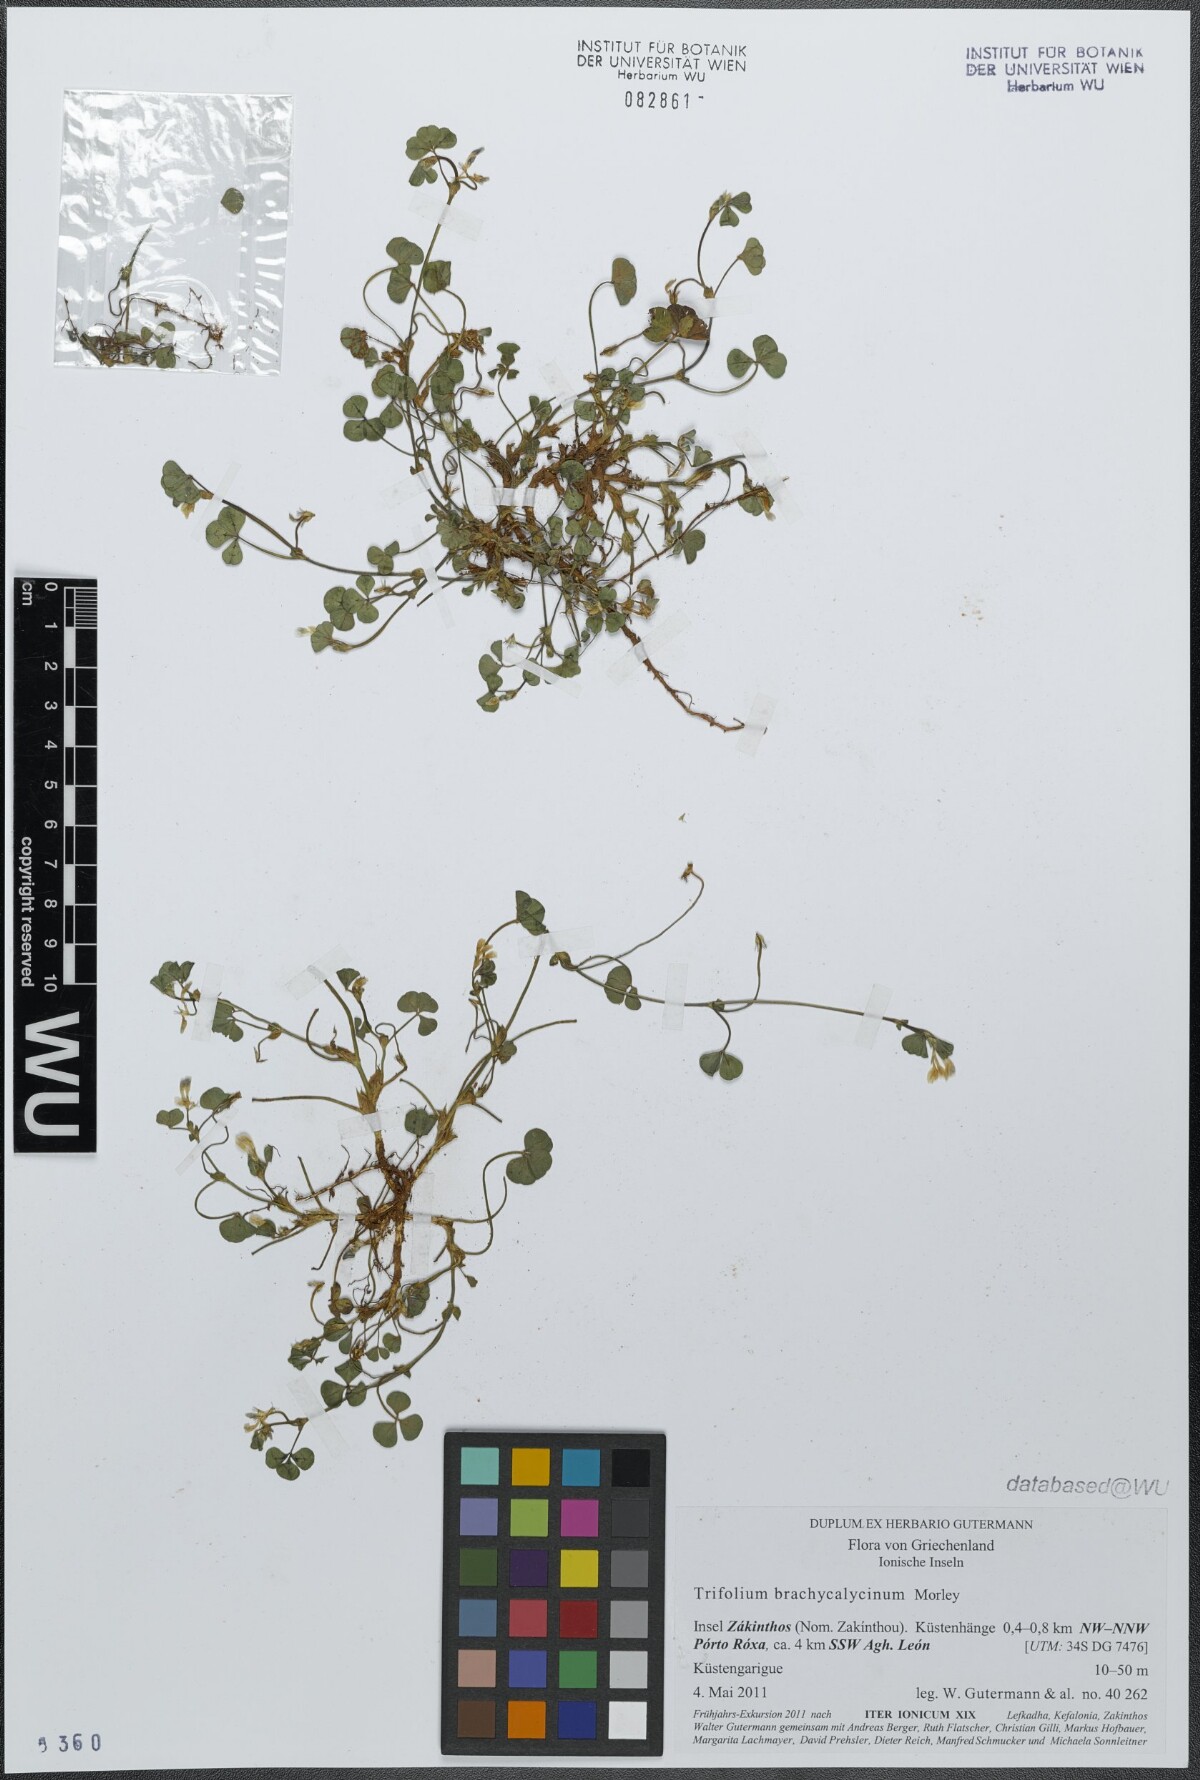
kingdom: Plantae
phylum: Tracheophyta
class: Magnoliopsida
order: Fabales
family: Fabaceae
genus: Trifolium
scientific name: Trifolium subterraneum
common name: Subterranean clover
